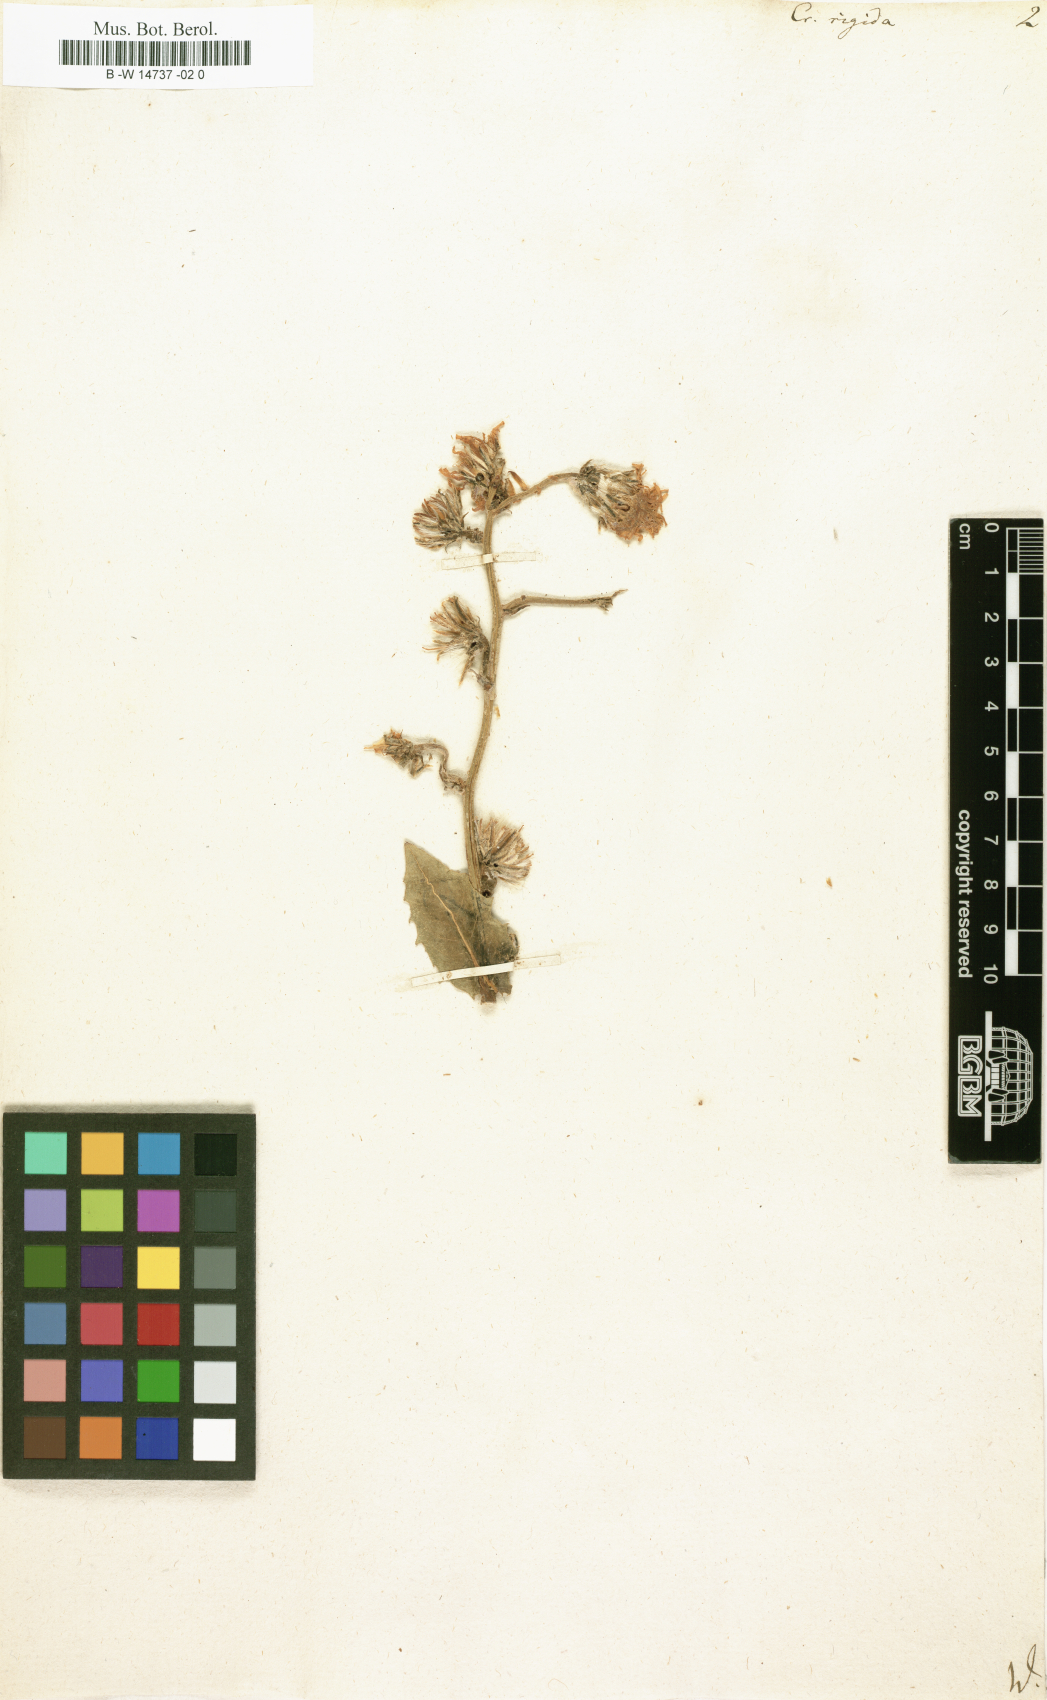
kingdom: Plantae
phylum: Tracheophyta
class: Magnoliopsida
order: Asterales
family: Asteraceae
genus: Crepis
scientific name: Crepis pannonica
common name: Pasture hawksbeard
